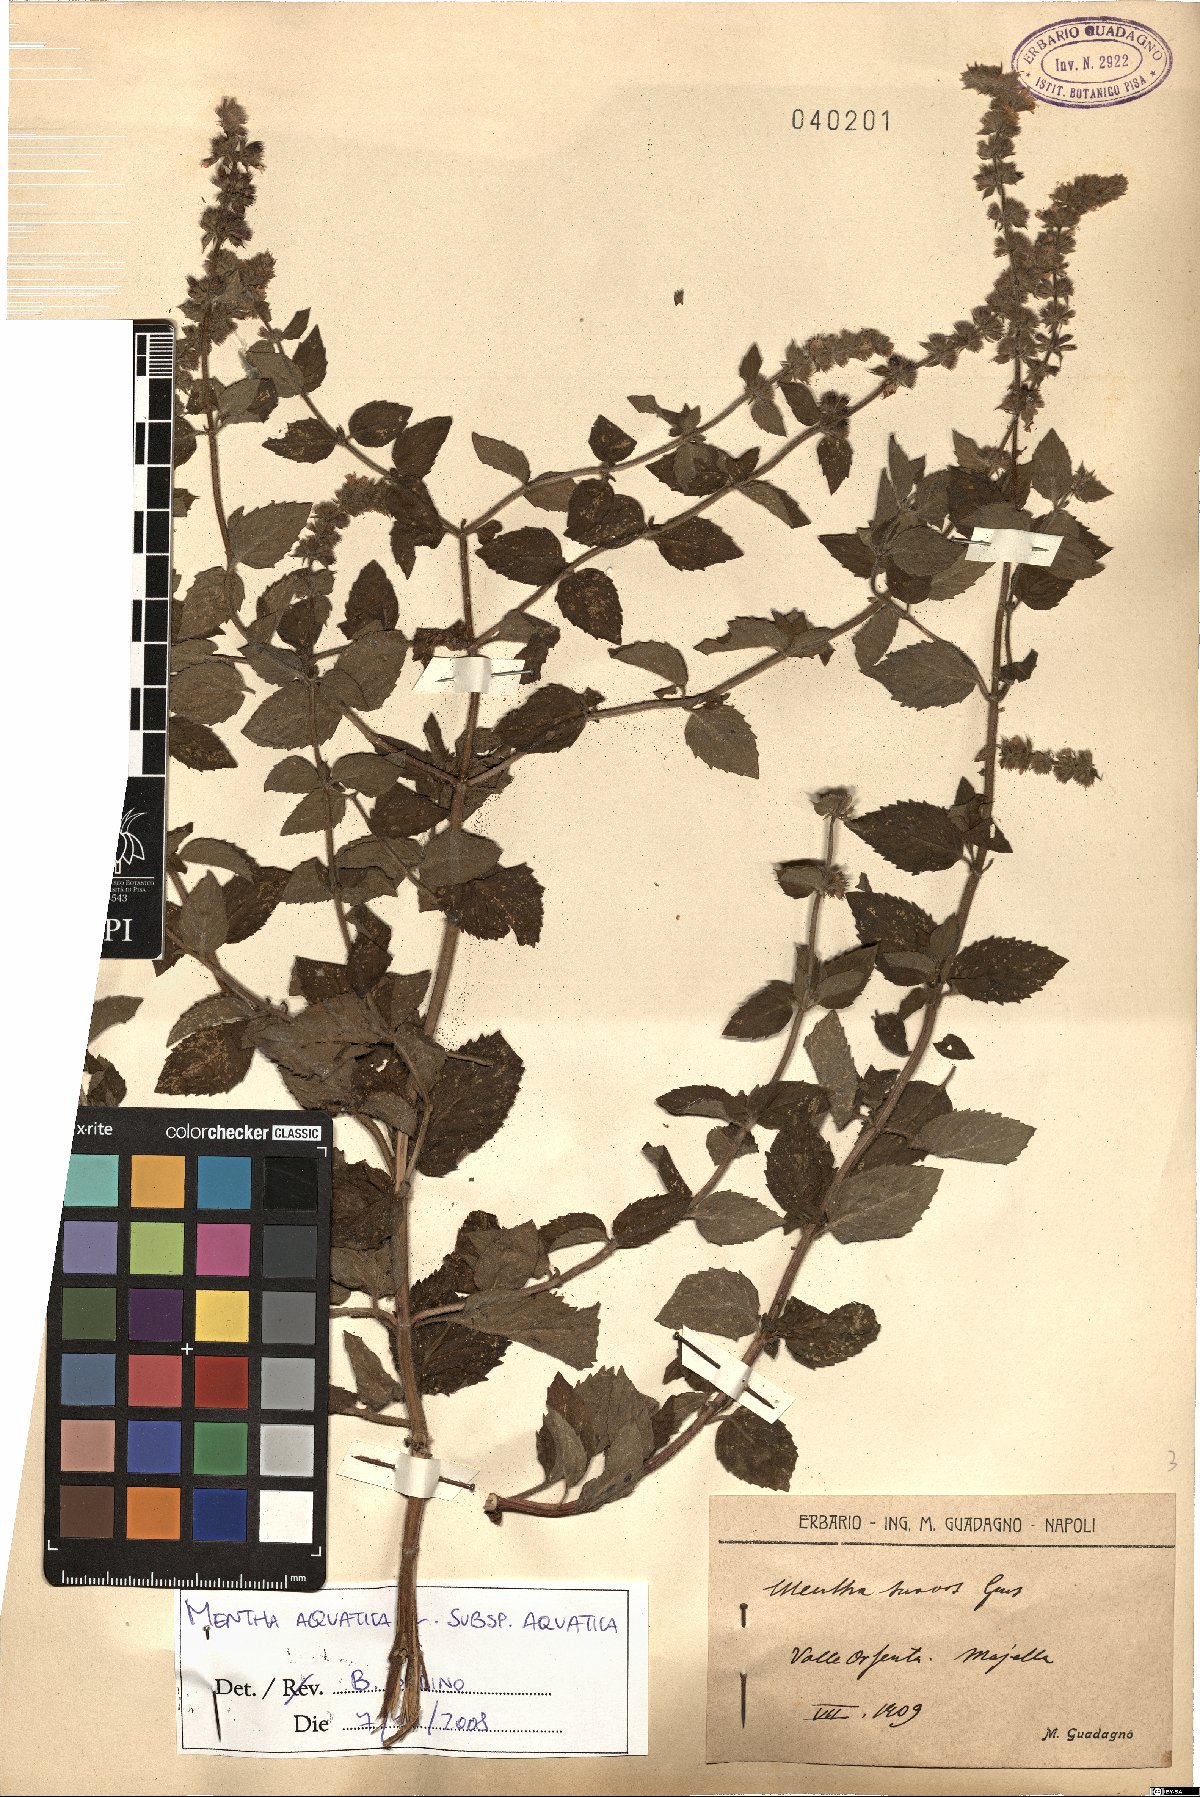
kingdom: Plantae
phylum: Tracheophyta
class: Magnoliopsida
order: Lamiales
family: Lamiaceae
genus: Mentha
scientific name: Mentha aquatica
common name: Water mint
